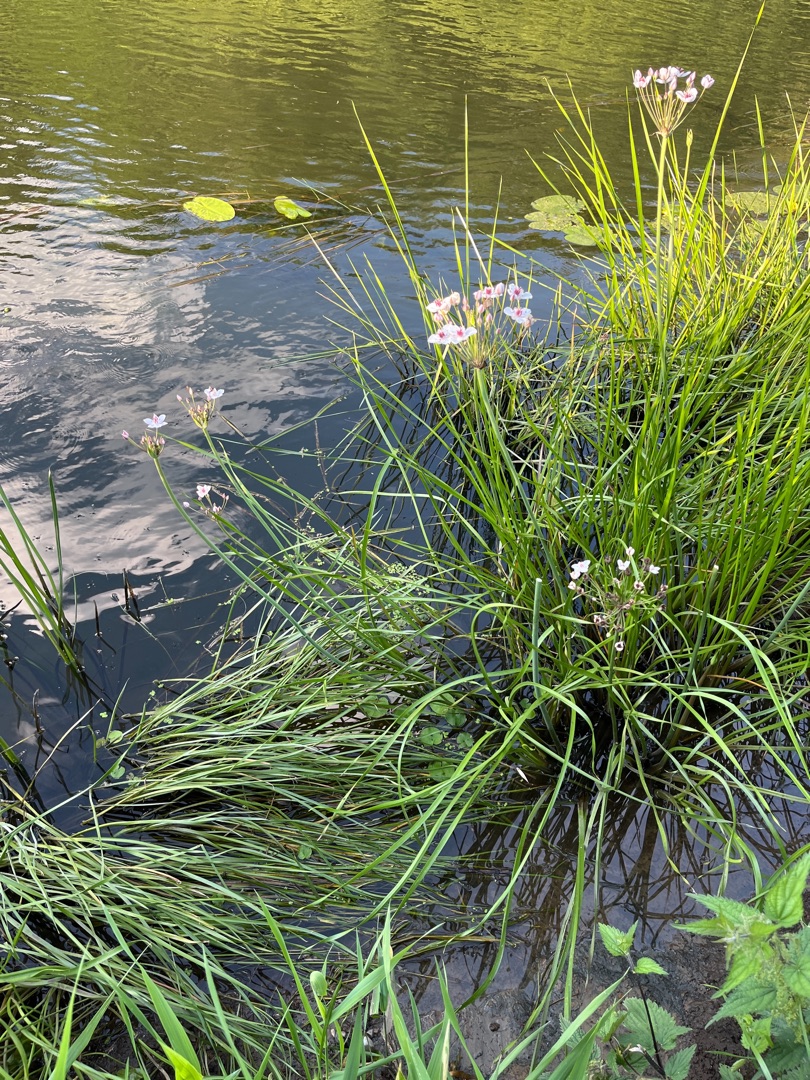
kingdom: Plantae
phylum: Tracheophyta
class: Liliopsida
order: Alismatales
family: Butomaceae
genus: Butomus
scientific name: Butomus umbellatus
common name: Brudelys
